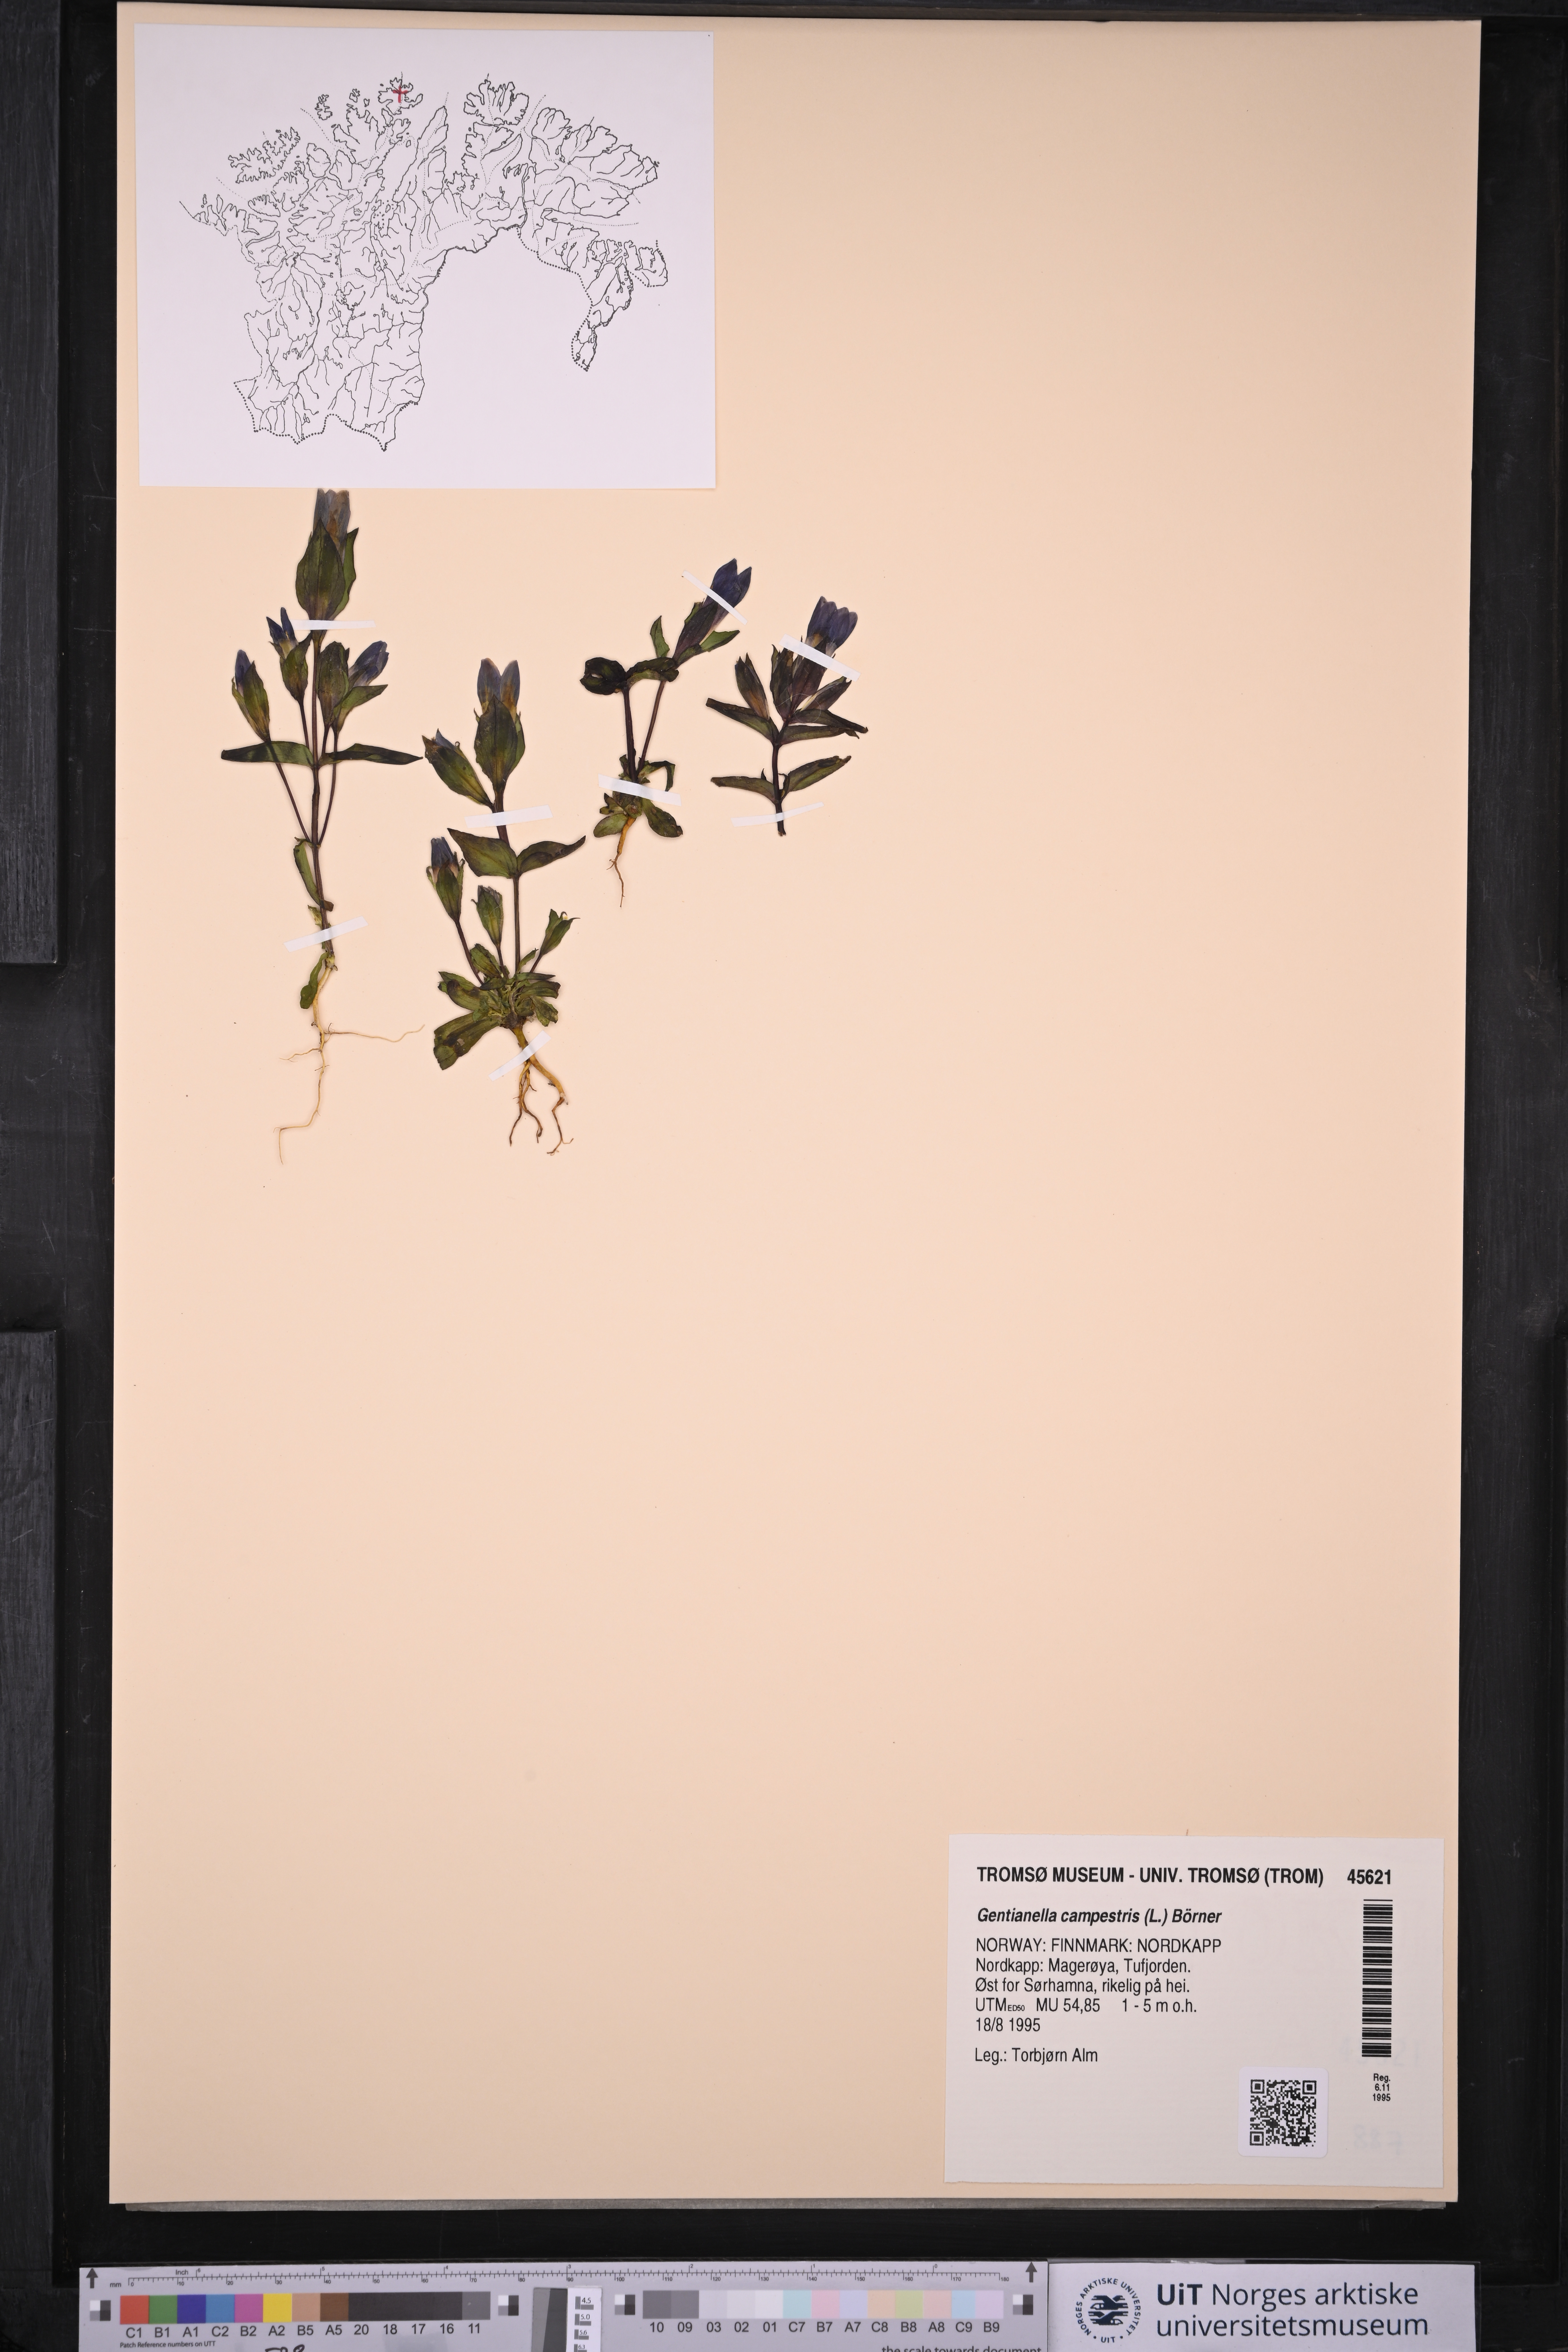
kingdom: Plantae
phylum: Tracheophyta
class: Magnoliopsida
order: Gentianales
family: Gentianaceae
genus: Gentianella
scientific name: Gentianella campestris
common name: Field gentian
